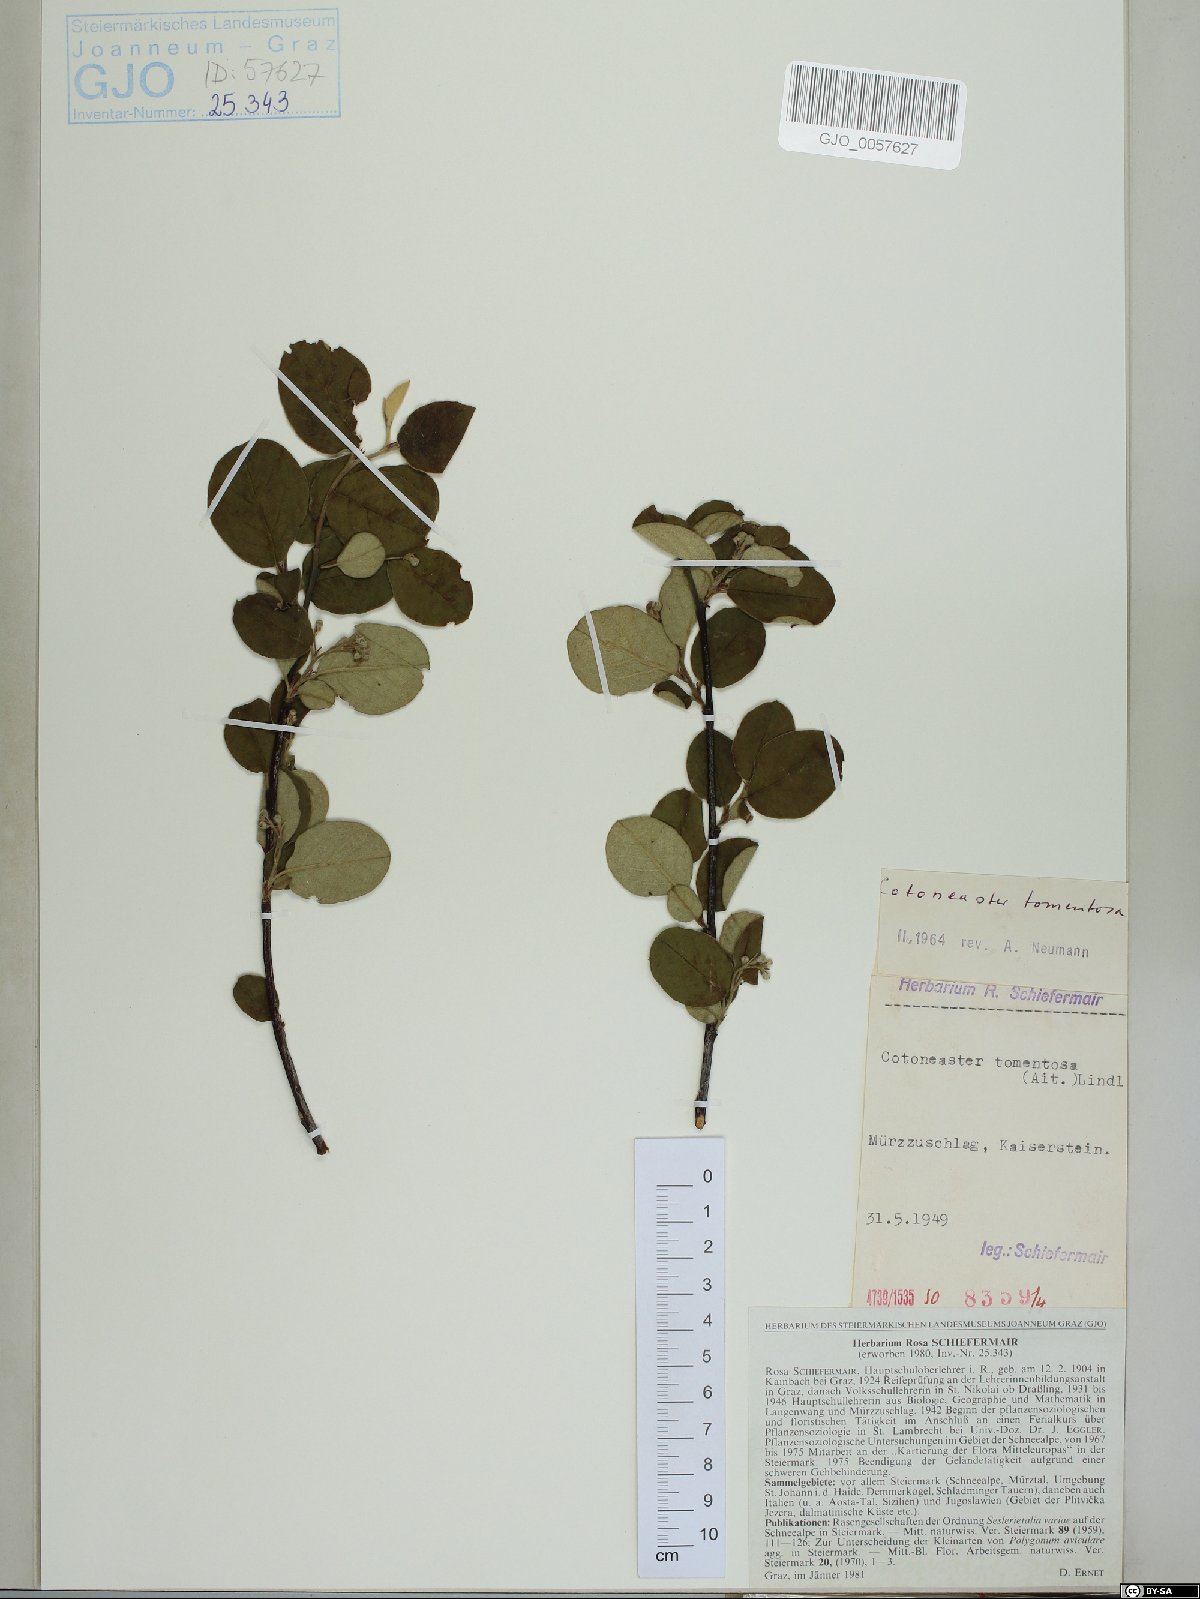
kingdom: Plantae
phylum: Tracheophyta
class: Magnoliopsida
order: Rosales
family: Rosaceae
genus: Cotoneaster
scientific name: Cotoneaster tomentosus
